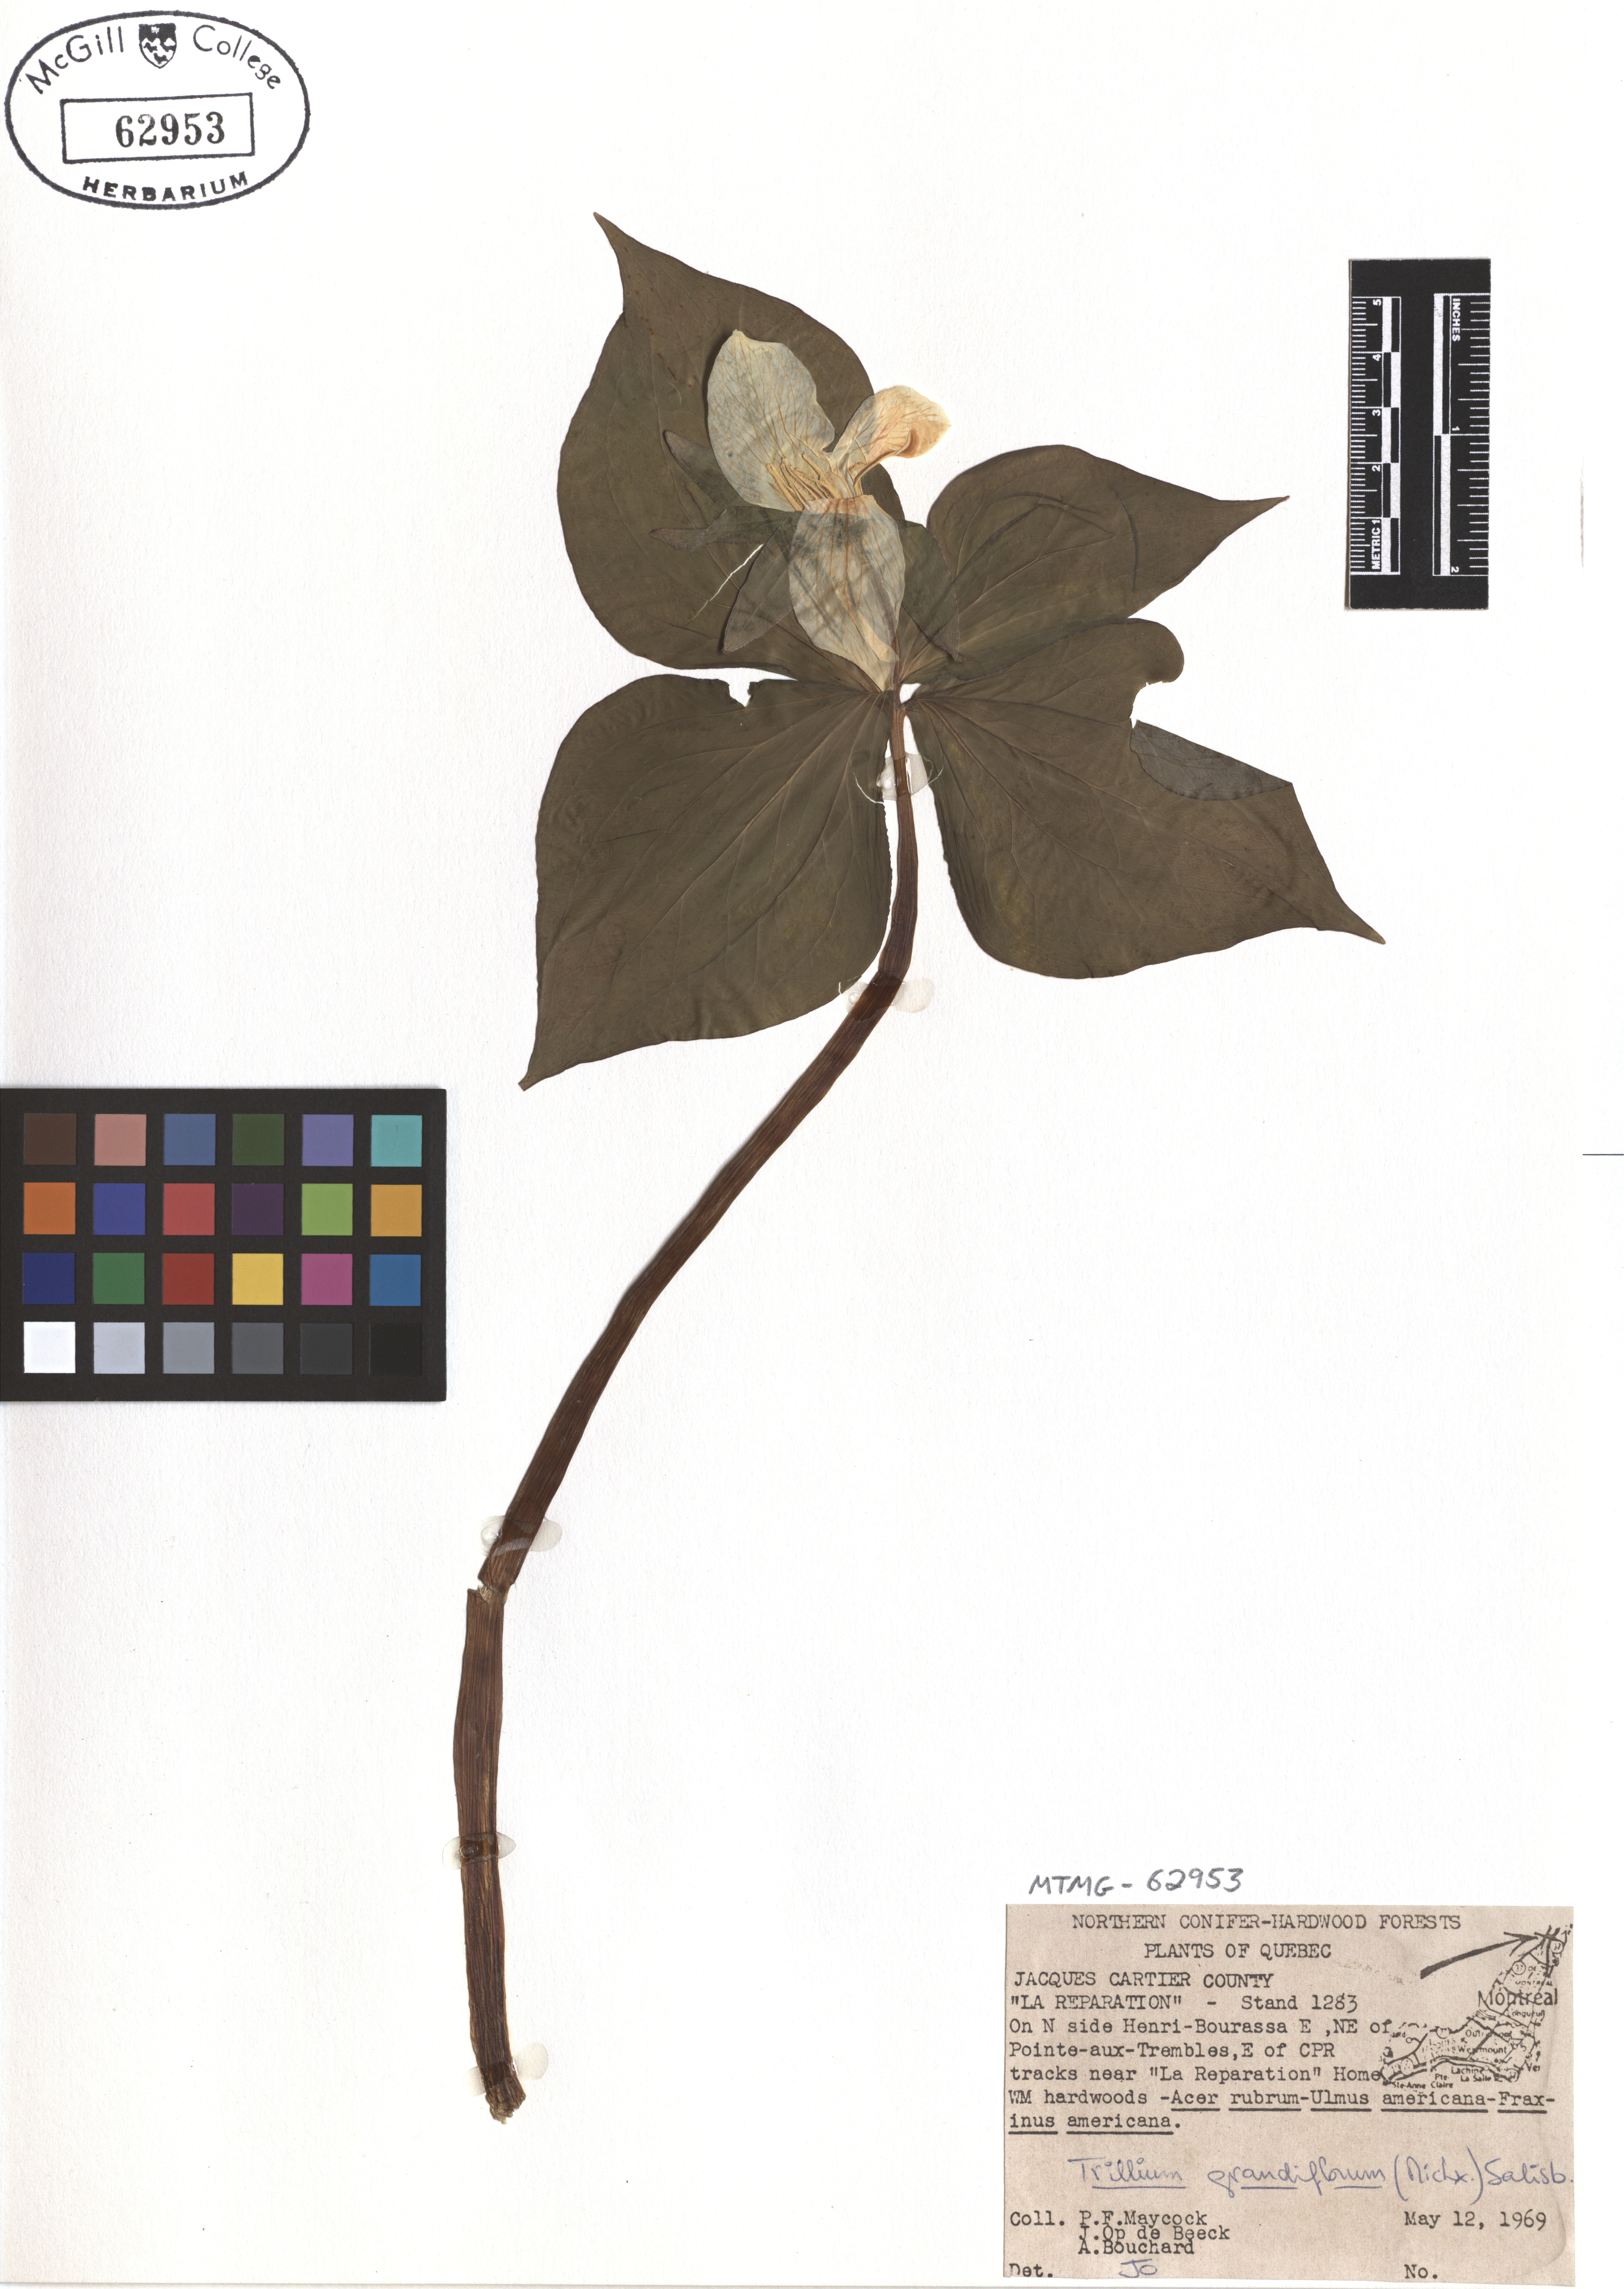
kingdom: Plantae
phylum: Tracheophyta
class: Liliopsida
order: Liliales
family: Melanthiaceae
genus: Trillium
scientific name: Trillium grandiflorum
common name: Great white trillium
